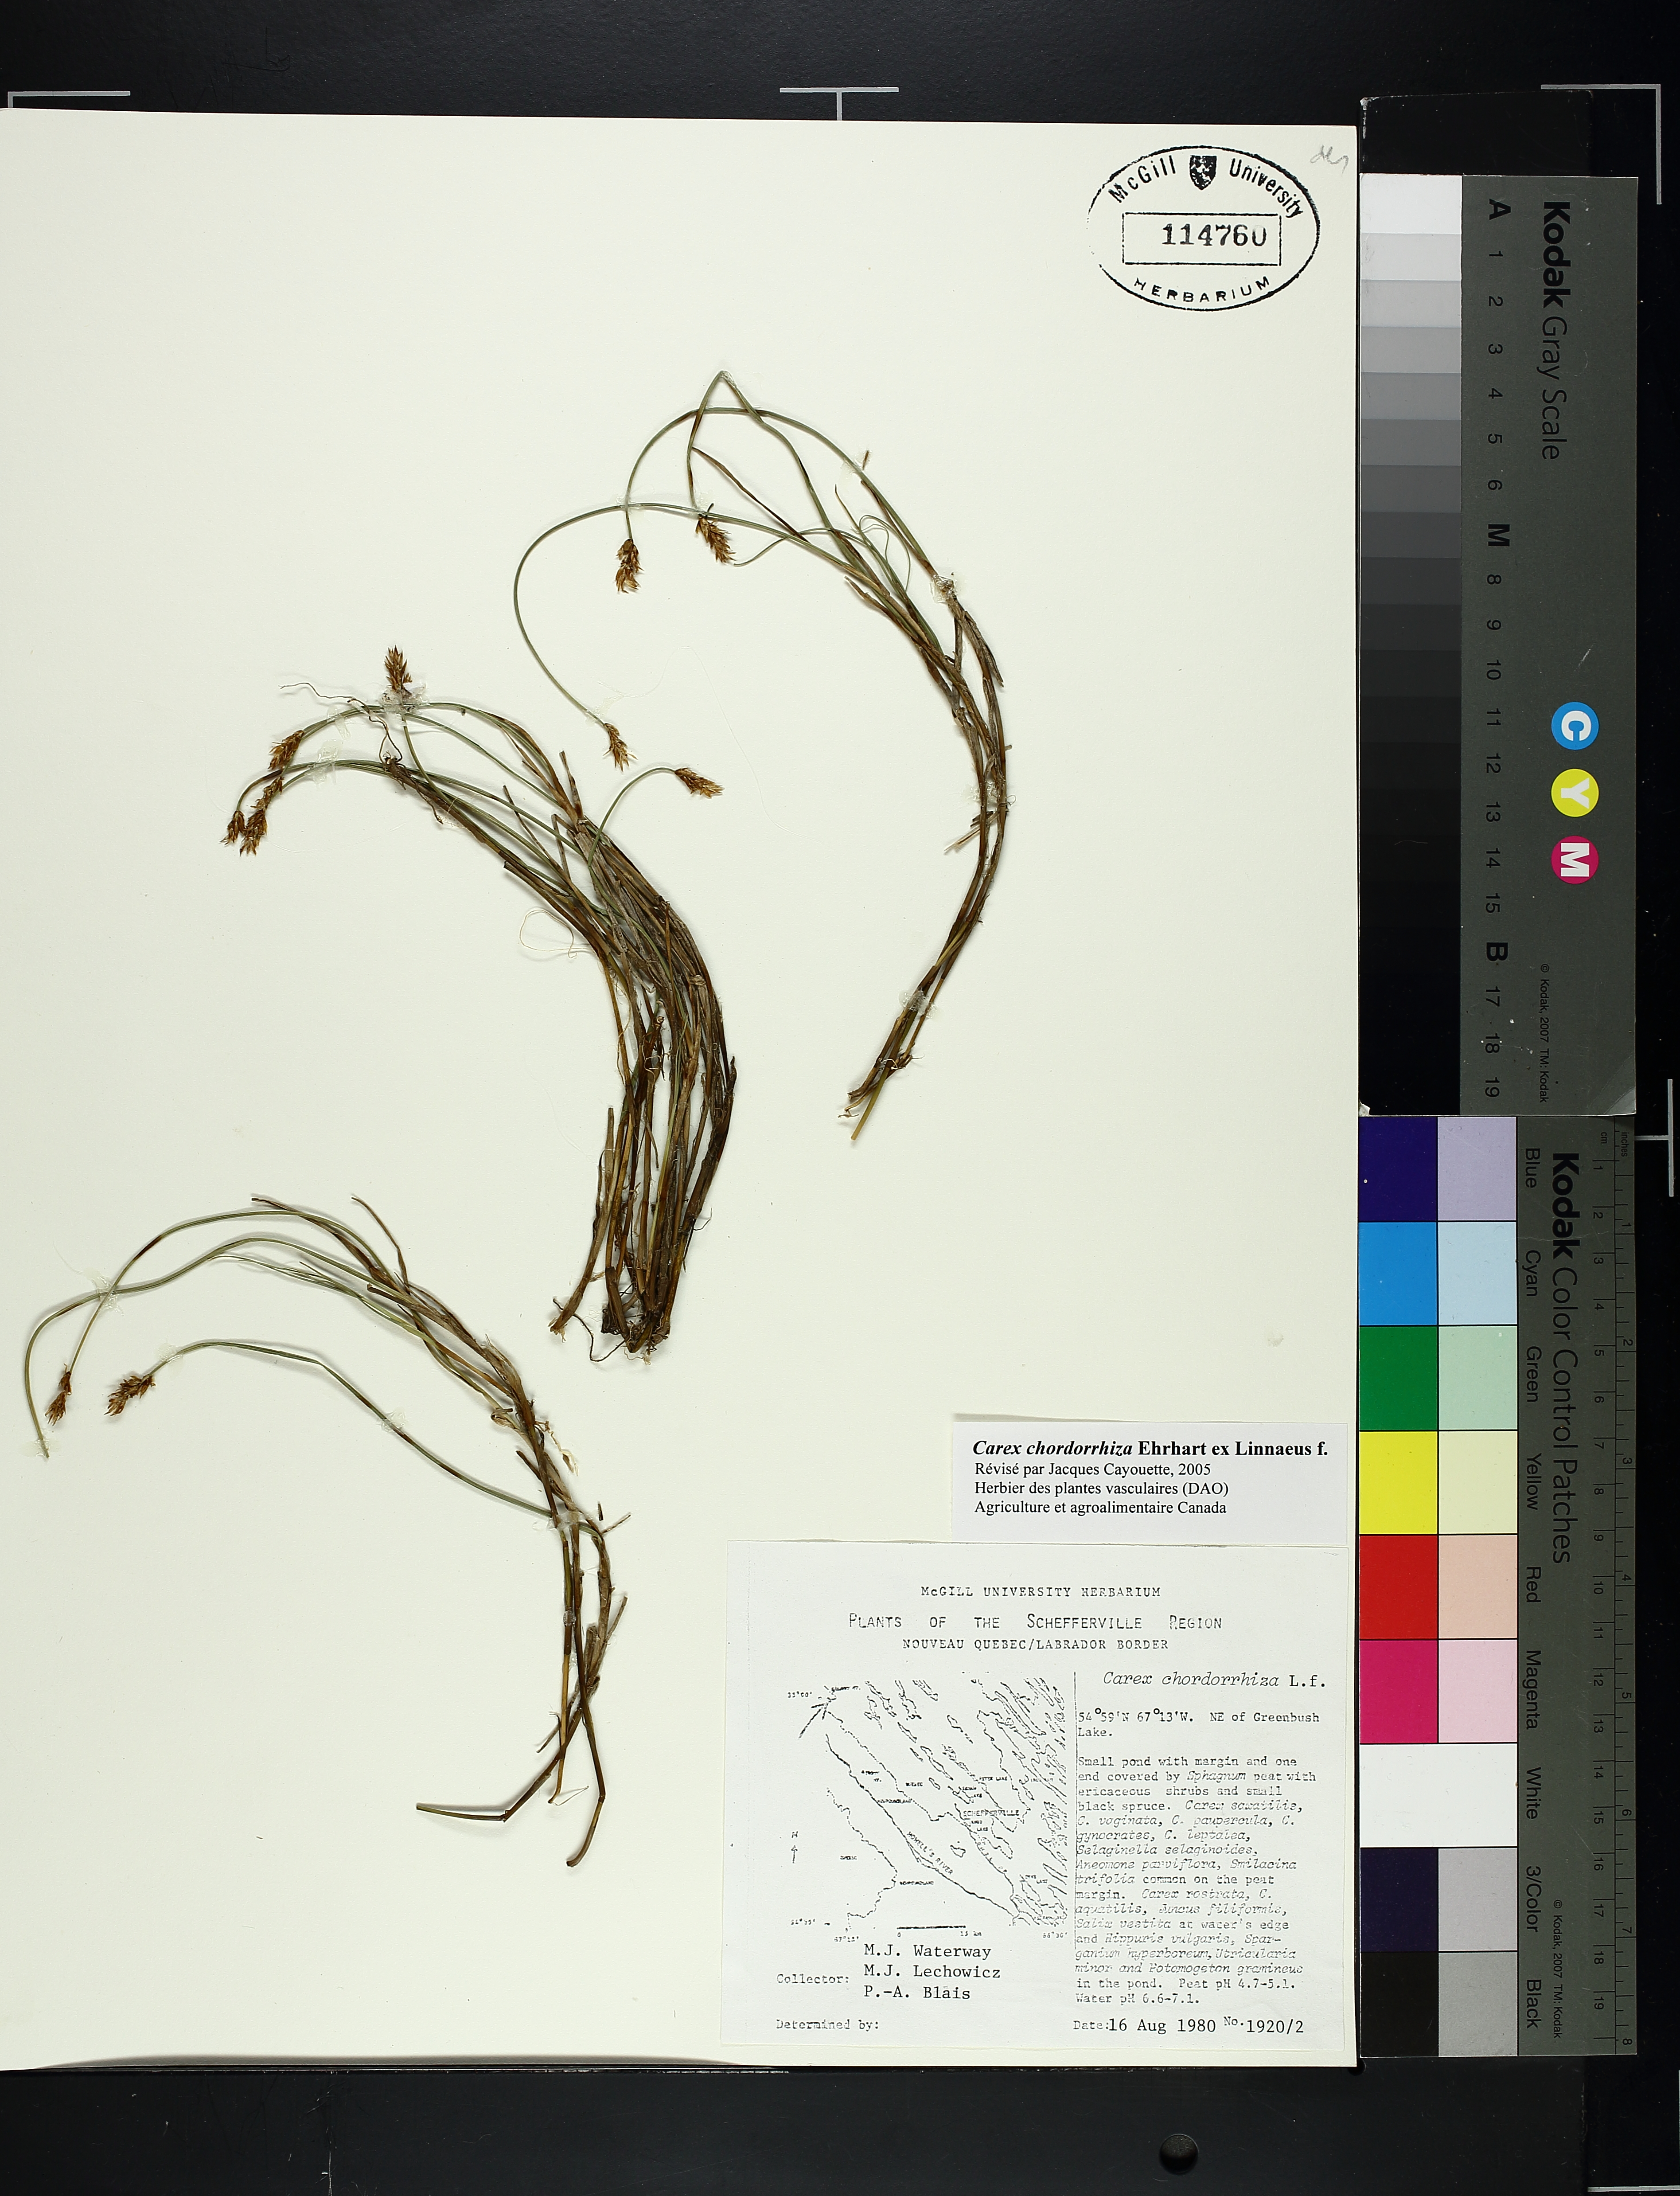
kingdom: Plantae
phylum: Tracheophyta
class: Liliopsida
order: Poales
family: Cyperaceae
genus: Carex
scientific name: Carex
